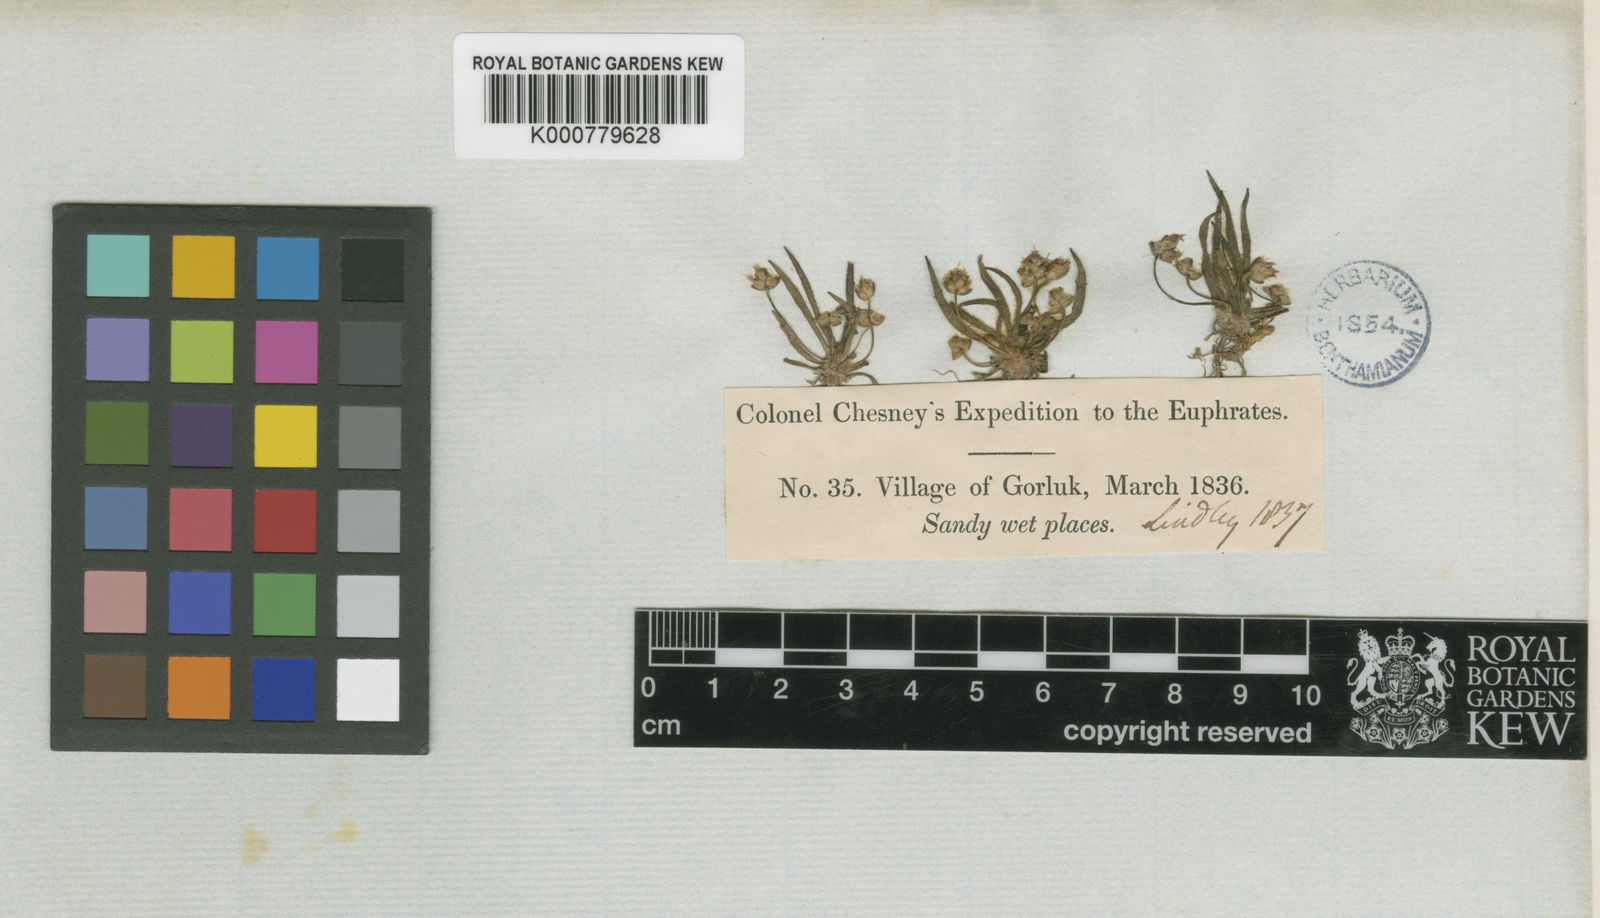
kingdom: Plantae
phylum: Tracheophyta
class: Magnoliopsida
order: Lamiales
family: Plantaginaceae
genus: Plantago
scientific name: Plantago loeflingii
